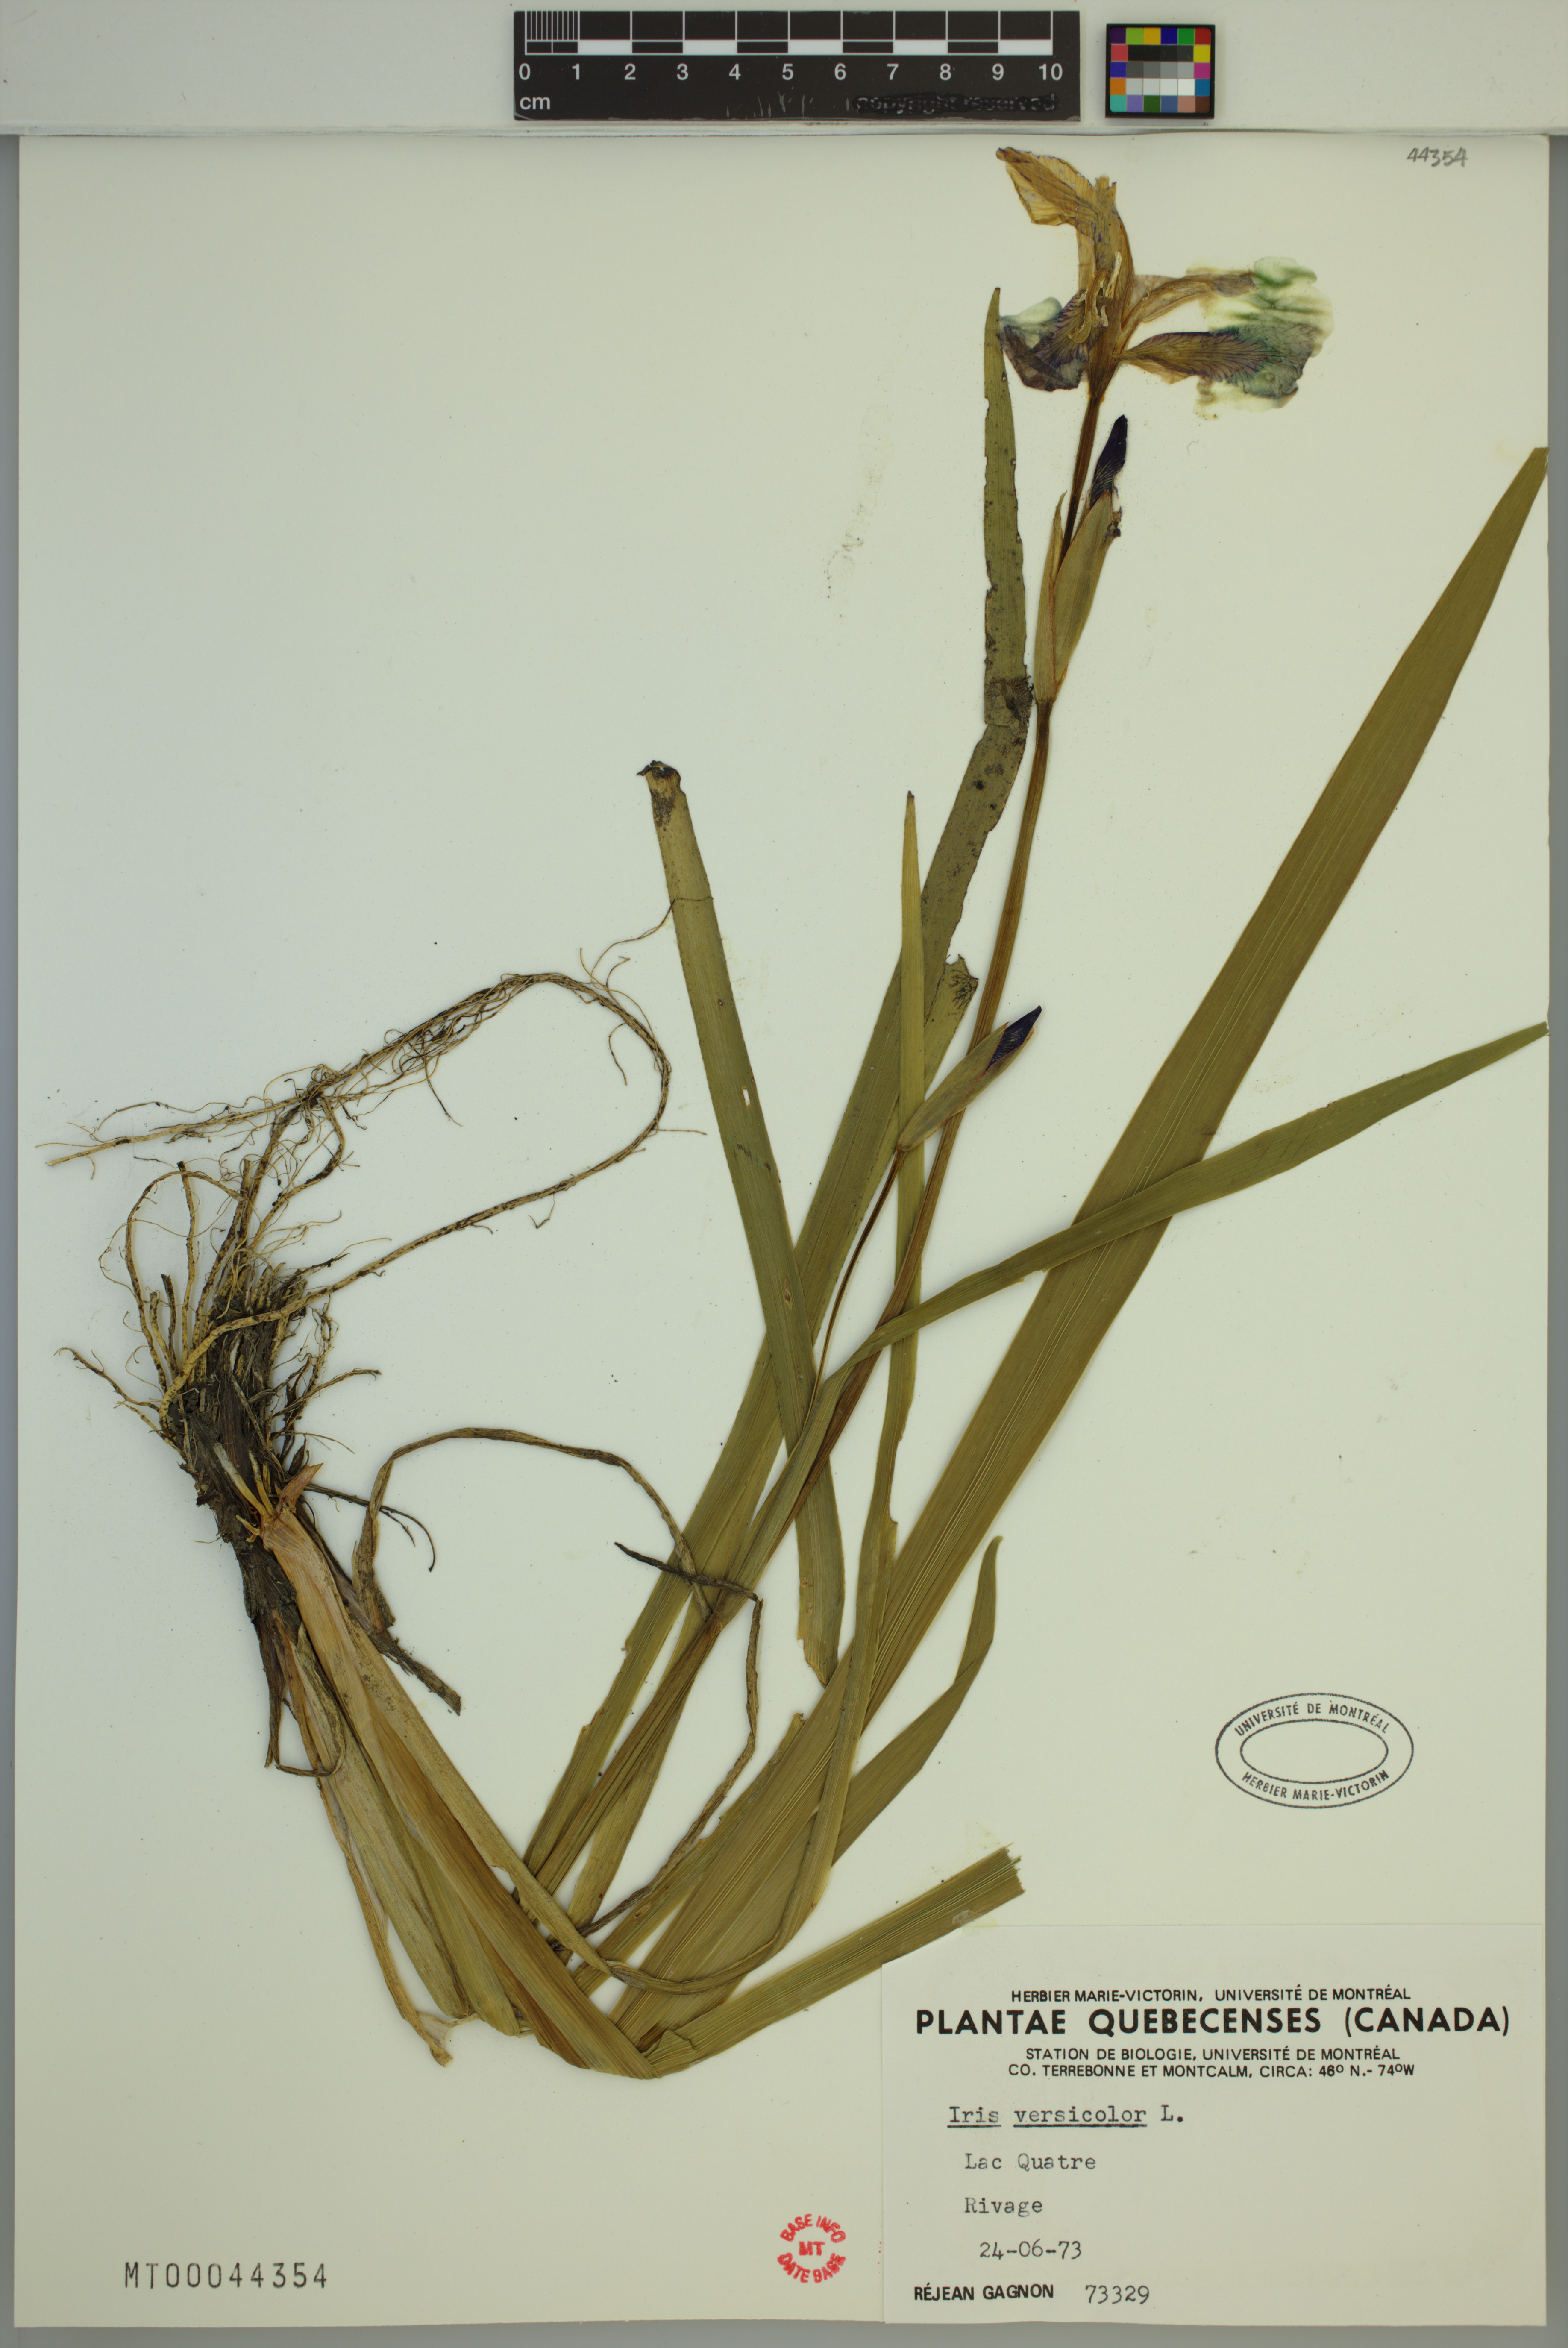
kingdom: Plantae
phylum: Tracheophyta
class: Liliopsida
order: Asparagales
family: Iridaceae
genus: Iris
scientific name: Iris versicolor
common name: Purple iris
